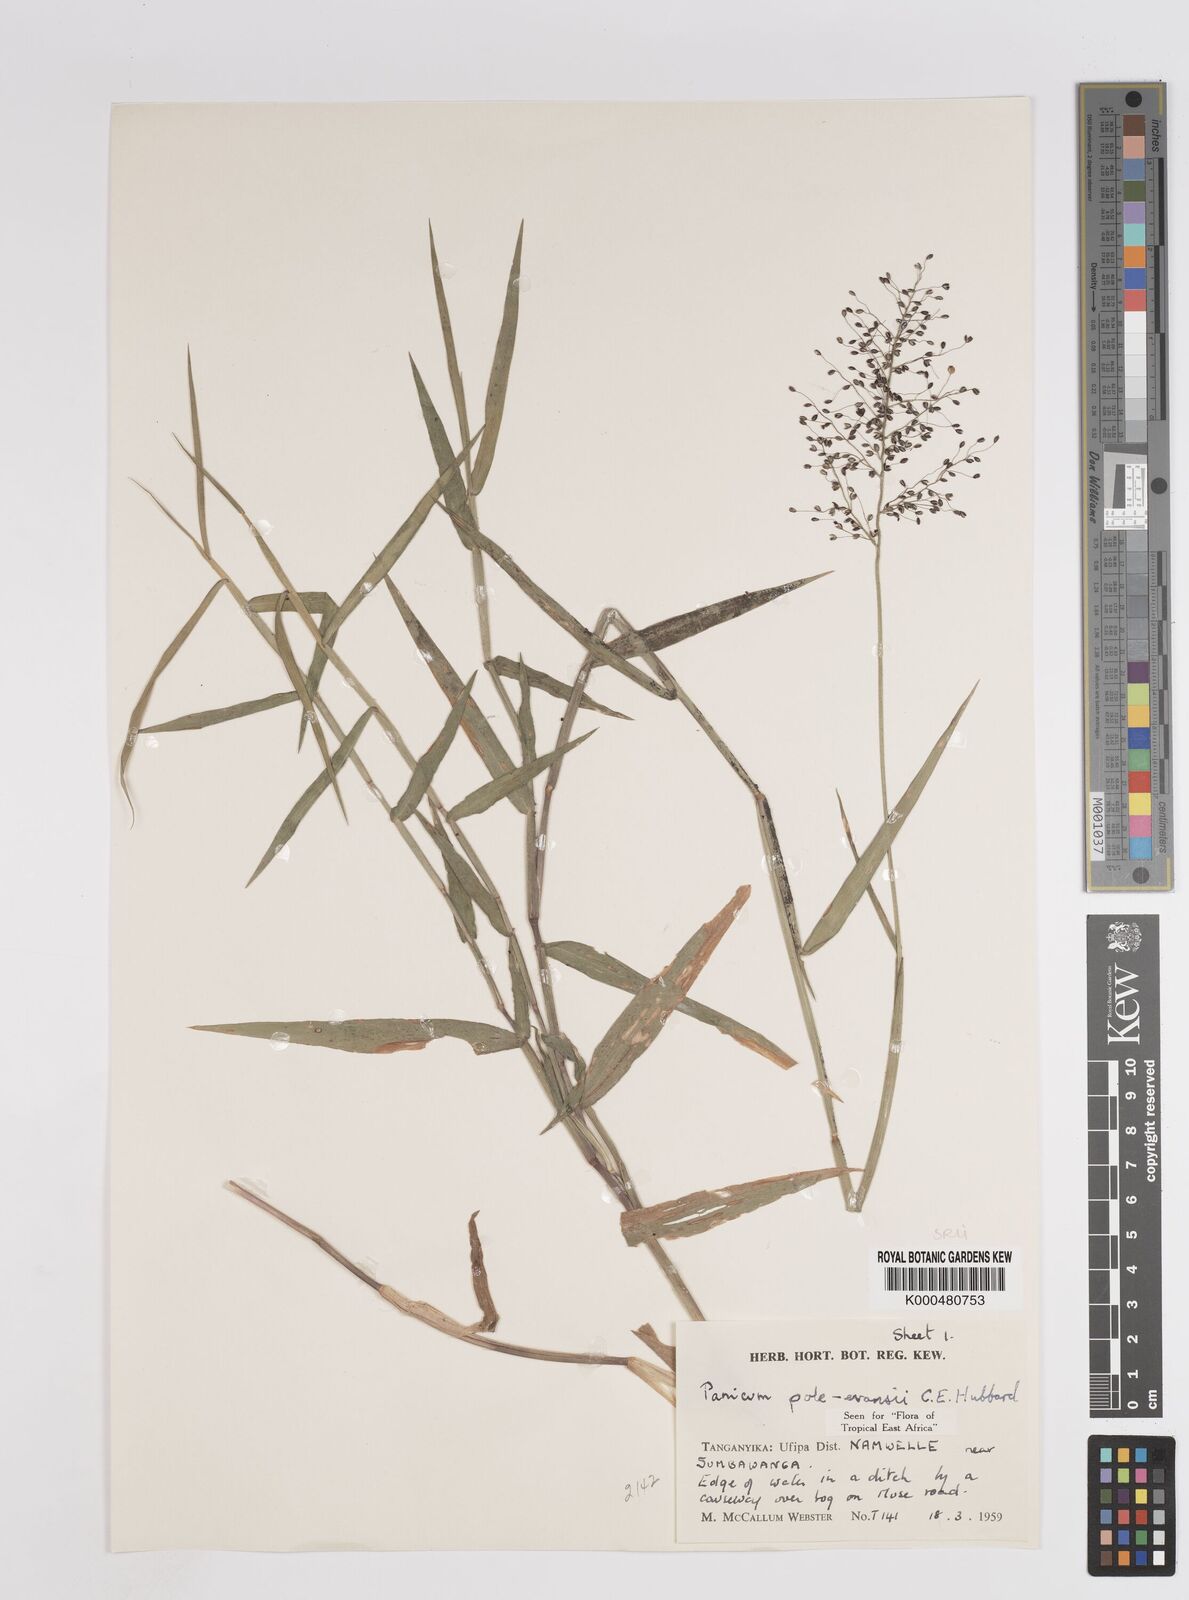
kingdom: Plantae
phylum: Tracheophyta
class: Liliopsida
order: Poales
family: Poaceae
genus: Adenochloa
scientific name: Adenochloa pole-evansii
